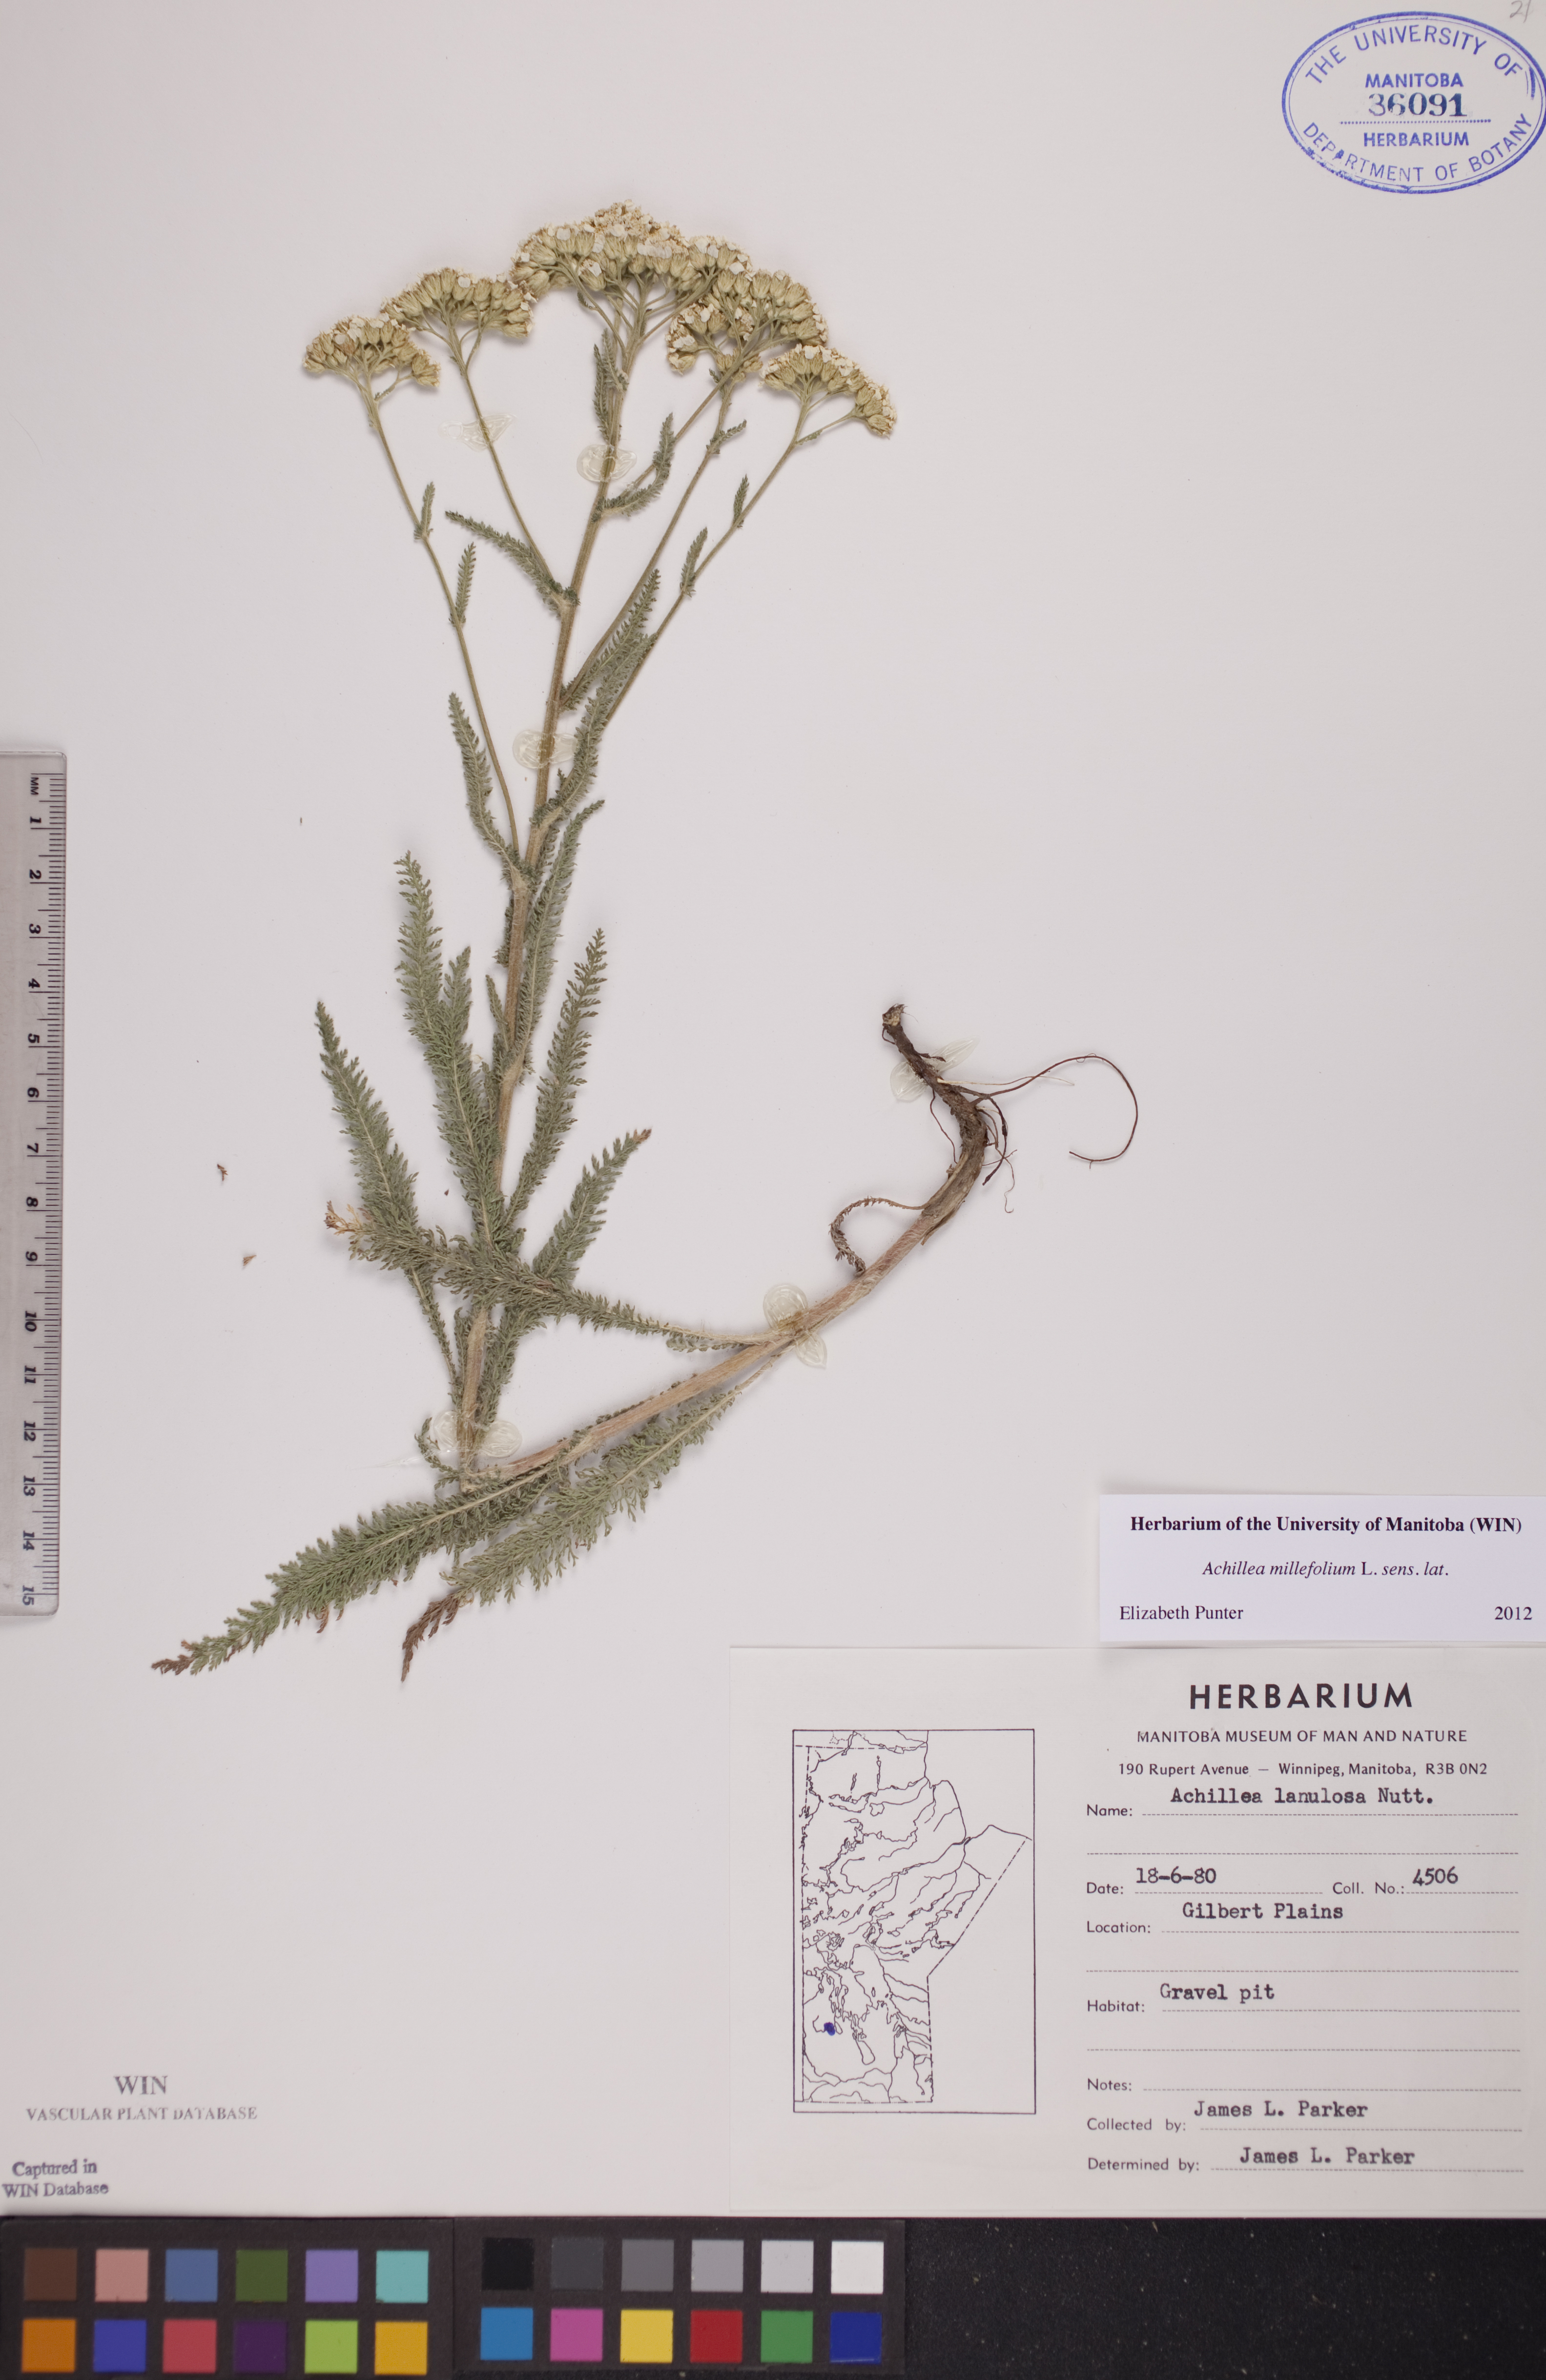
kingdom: Plantae
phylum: Tracheophyta
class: Magnoliopsida
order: Asterales
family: Asteraceae
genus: Achillea
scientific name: Achillea millefolium
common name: Yarrow
